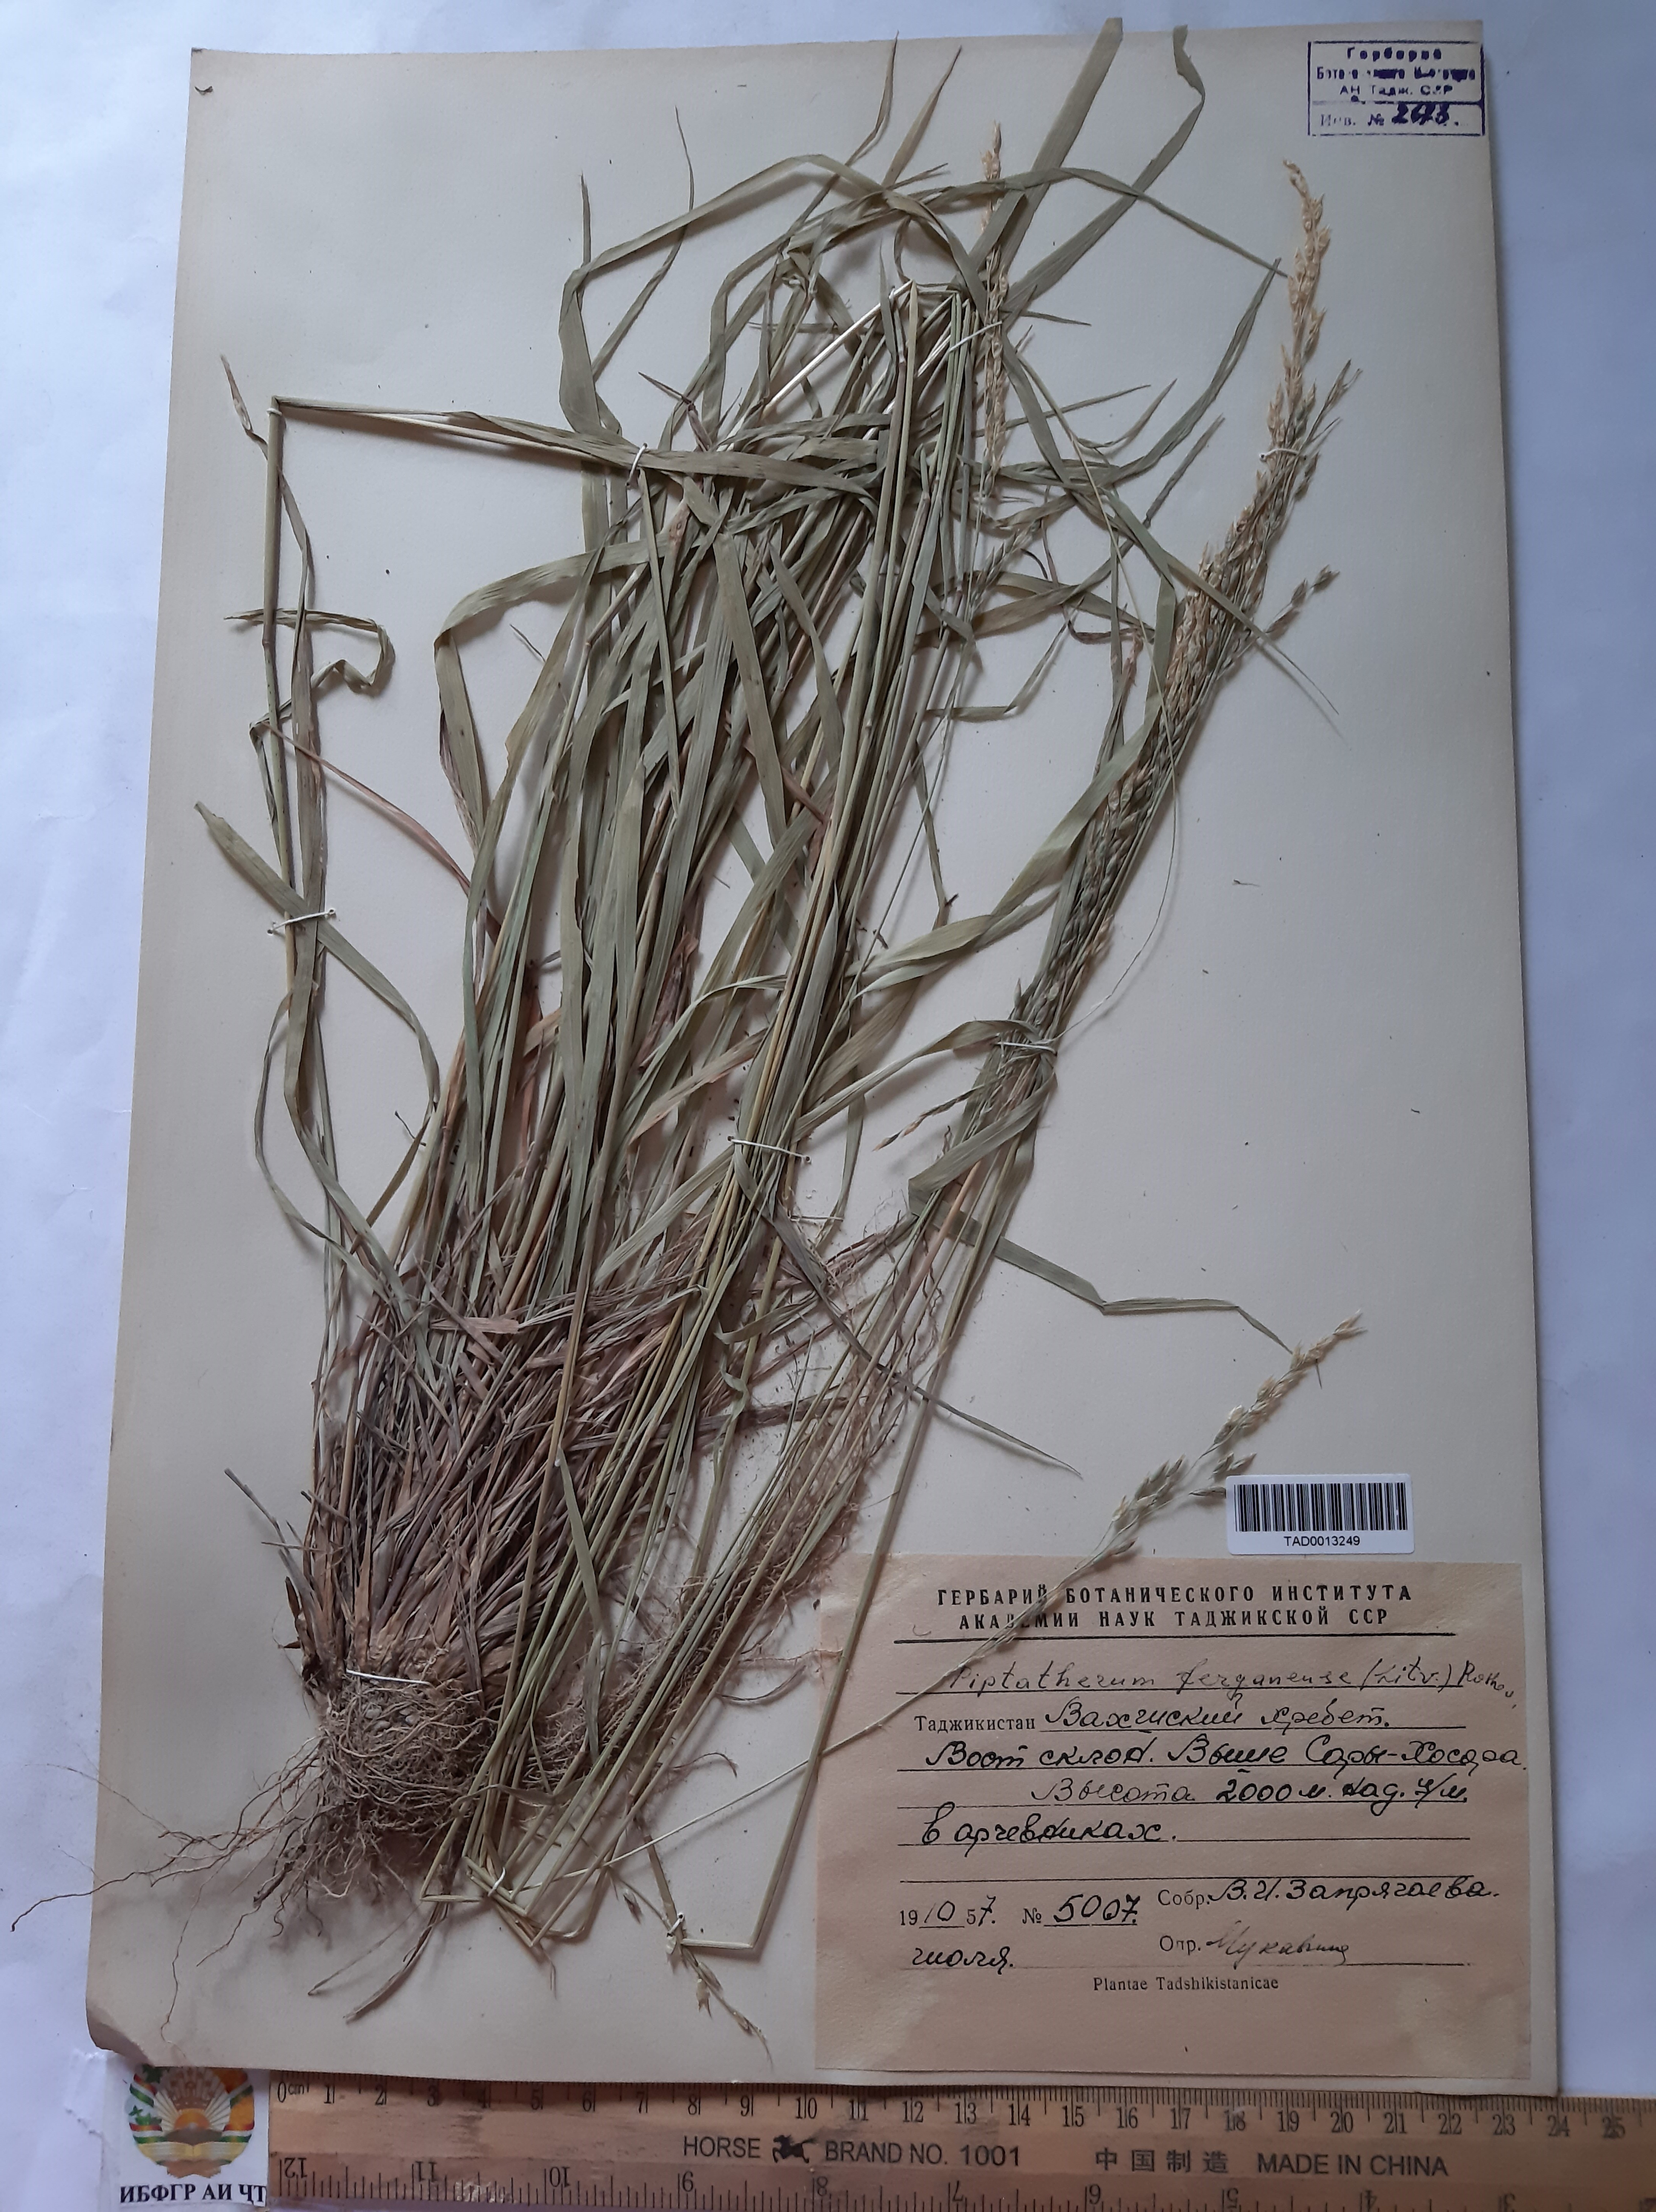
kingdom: Plantae
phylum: Tracheophyta
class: Liliopsida
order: Poales
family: Poaceae
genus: Piptatherum
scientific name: Piptatherum ferganense
